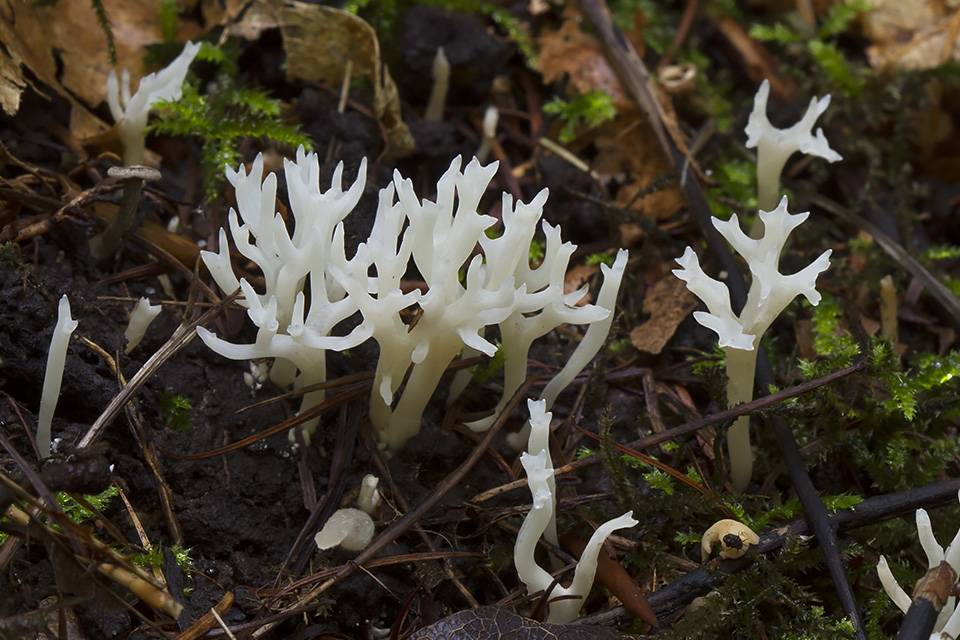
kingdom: Fungi
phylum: Basidiomycota
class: Agaricomycetes
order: Agaricales
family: Clavariaceae
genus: Ramariopsis
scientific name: Ramariopsis kunzei
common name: mangegrenet køllesvamp
